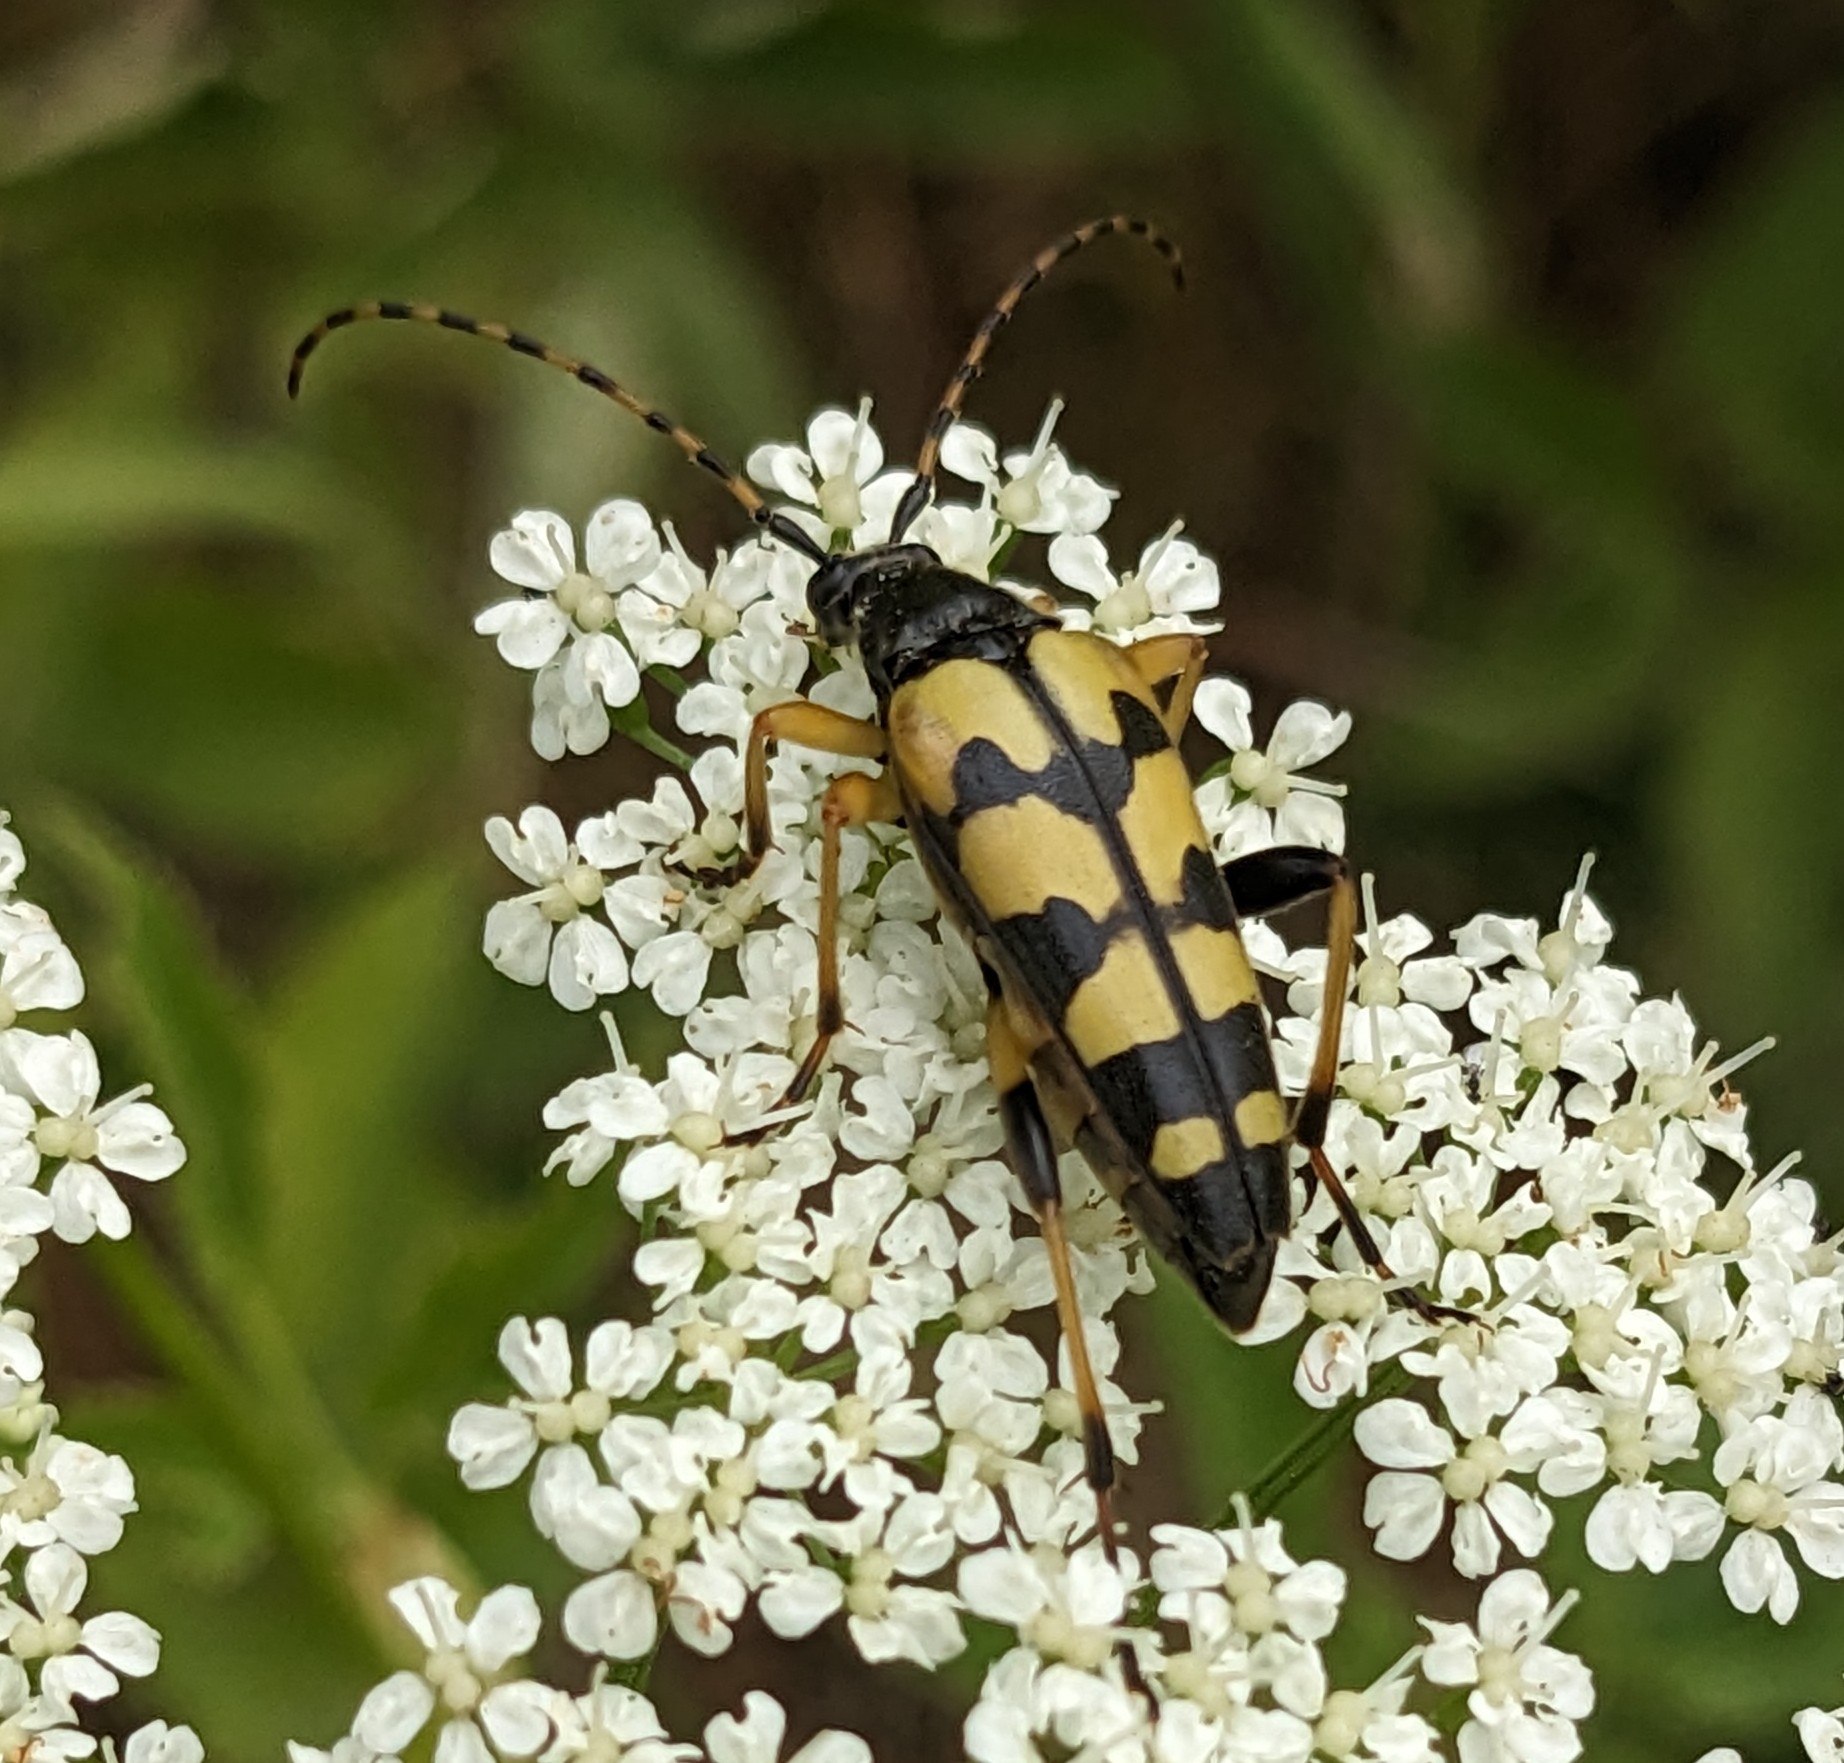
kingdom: Animalia
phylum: Arthropoda
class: Insecta
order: Coleoptera
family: Cerambycidae
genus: Rutpela
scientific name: Rutpela maculata
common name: Sydlig blomsterbuk
